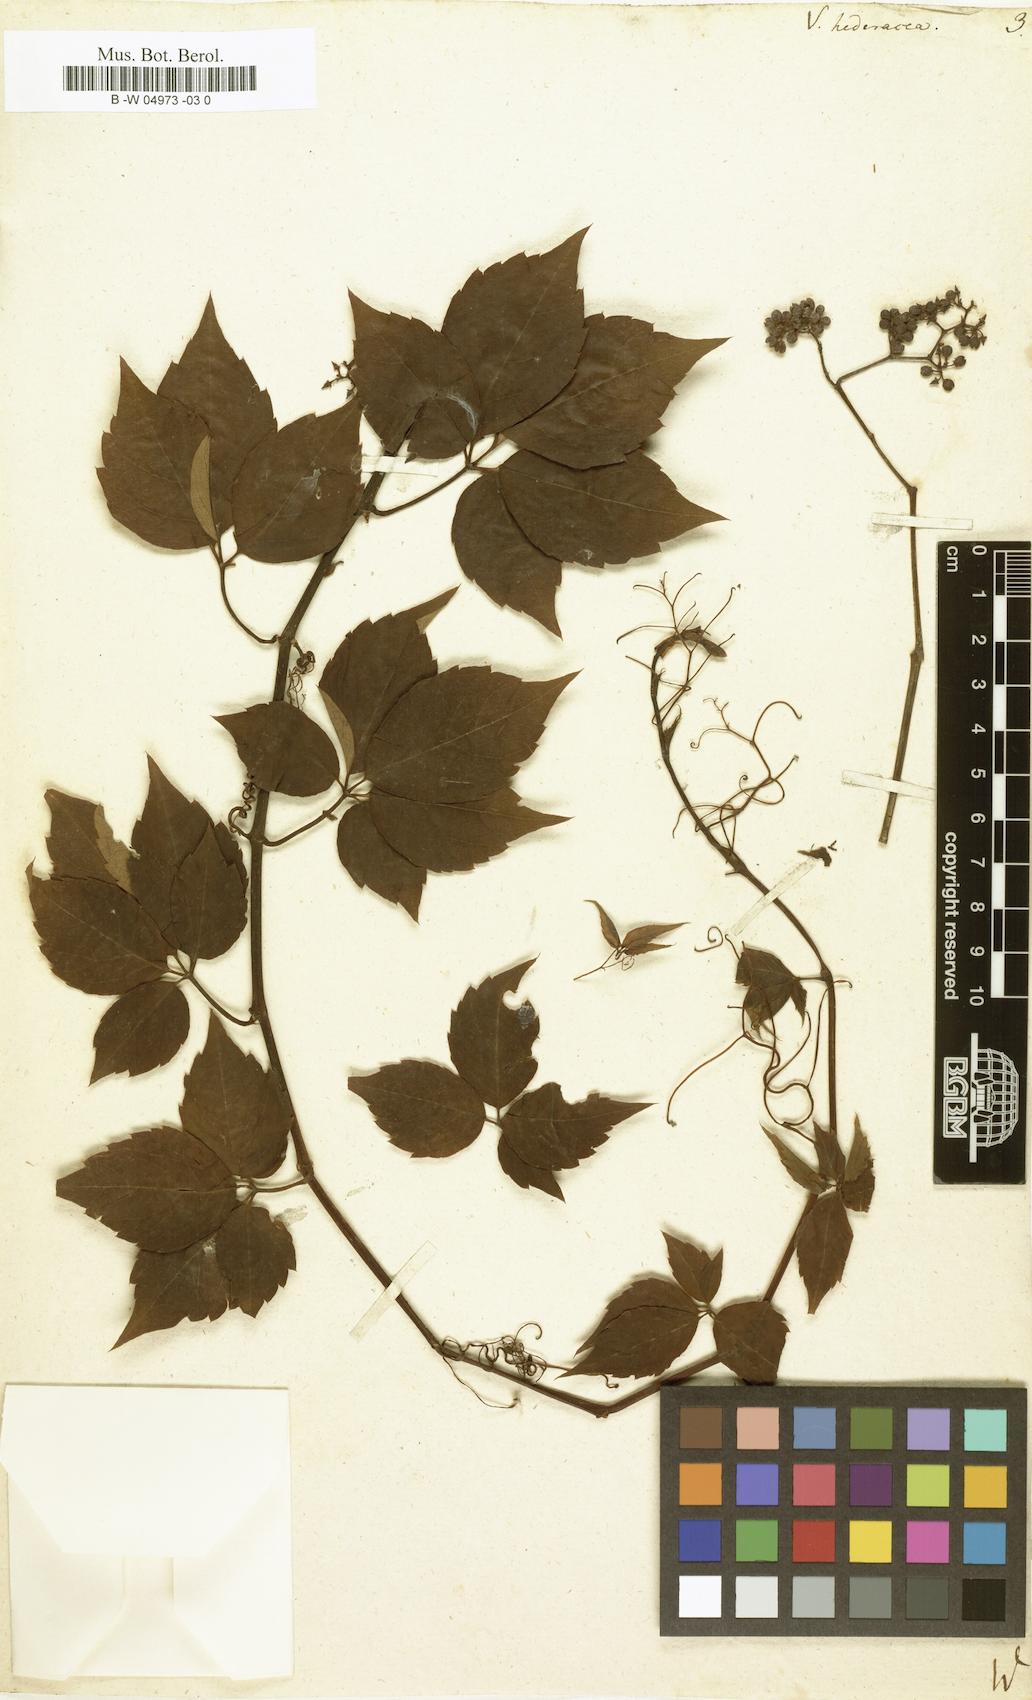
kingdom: Plantae
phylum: Tracheophyta
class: Magnoliopsida
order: Vitales
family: Vitaceae
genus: Parthenocissus
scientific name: Parthenocissus quinquefolia
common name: Virginia-creeper
